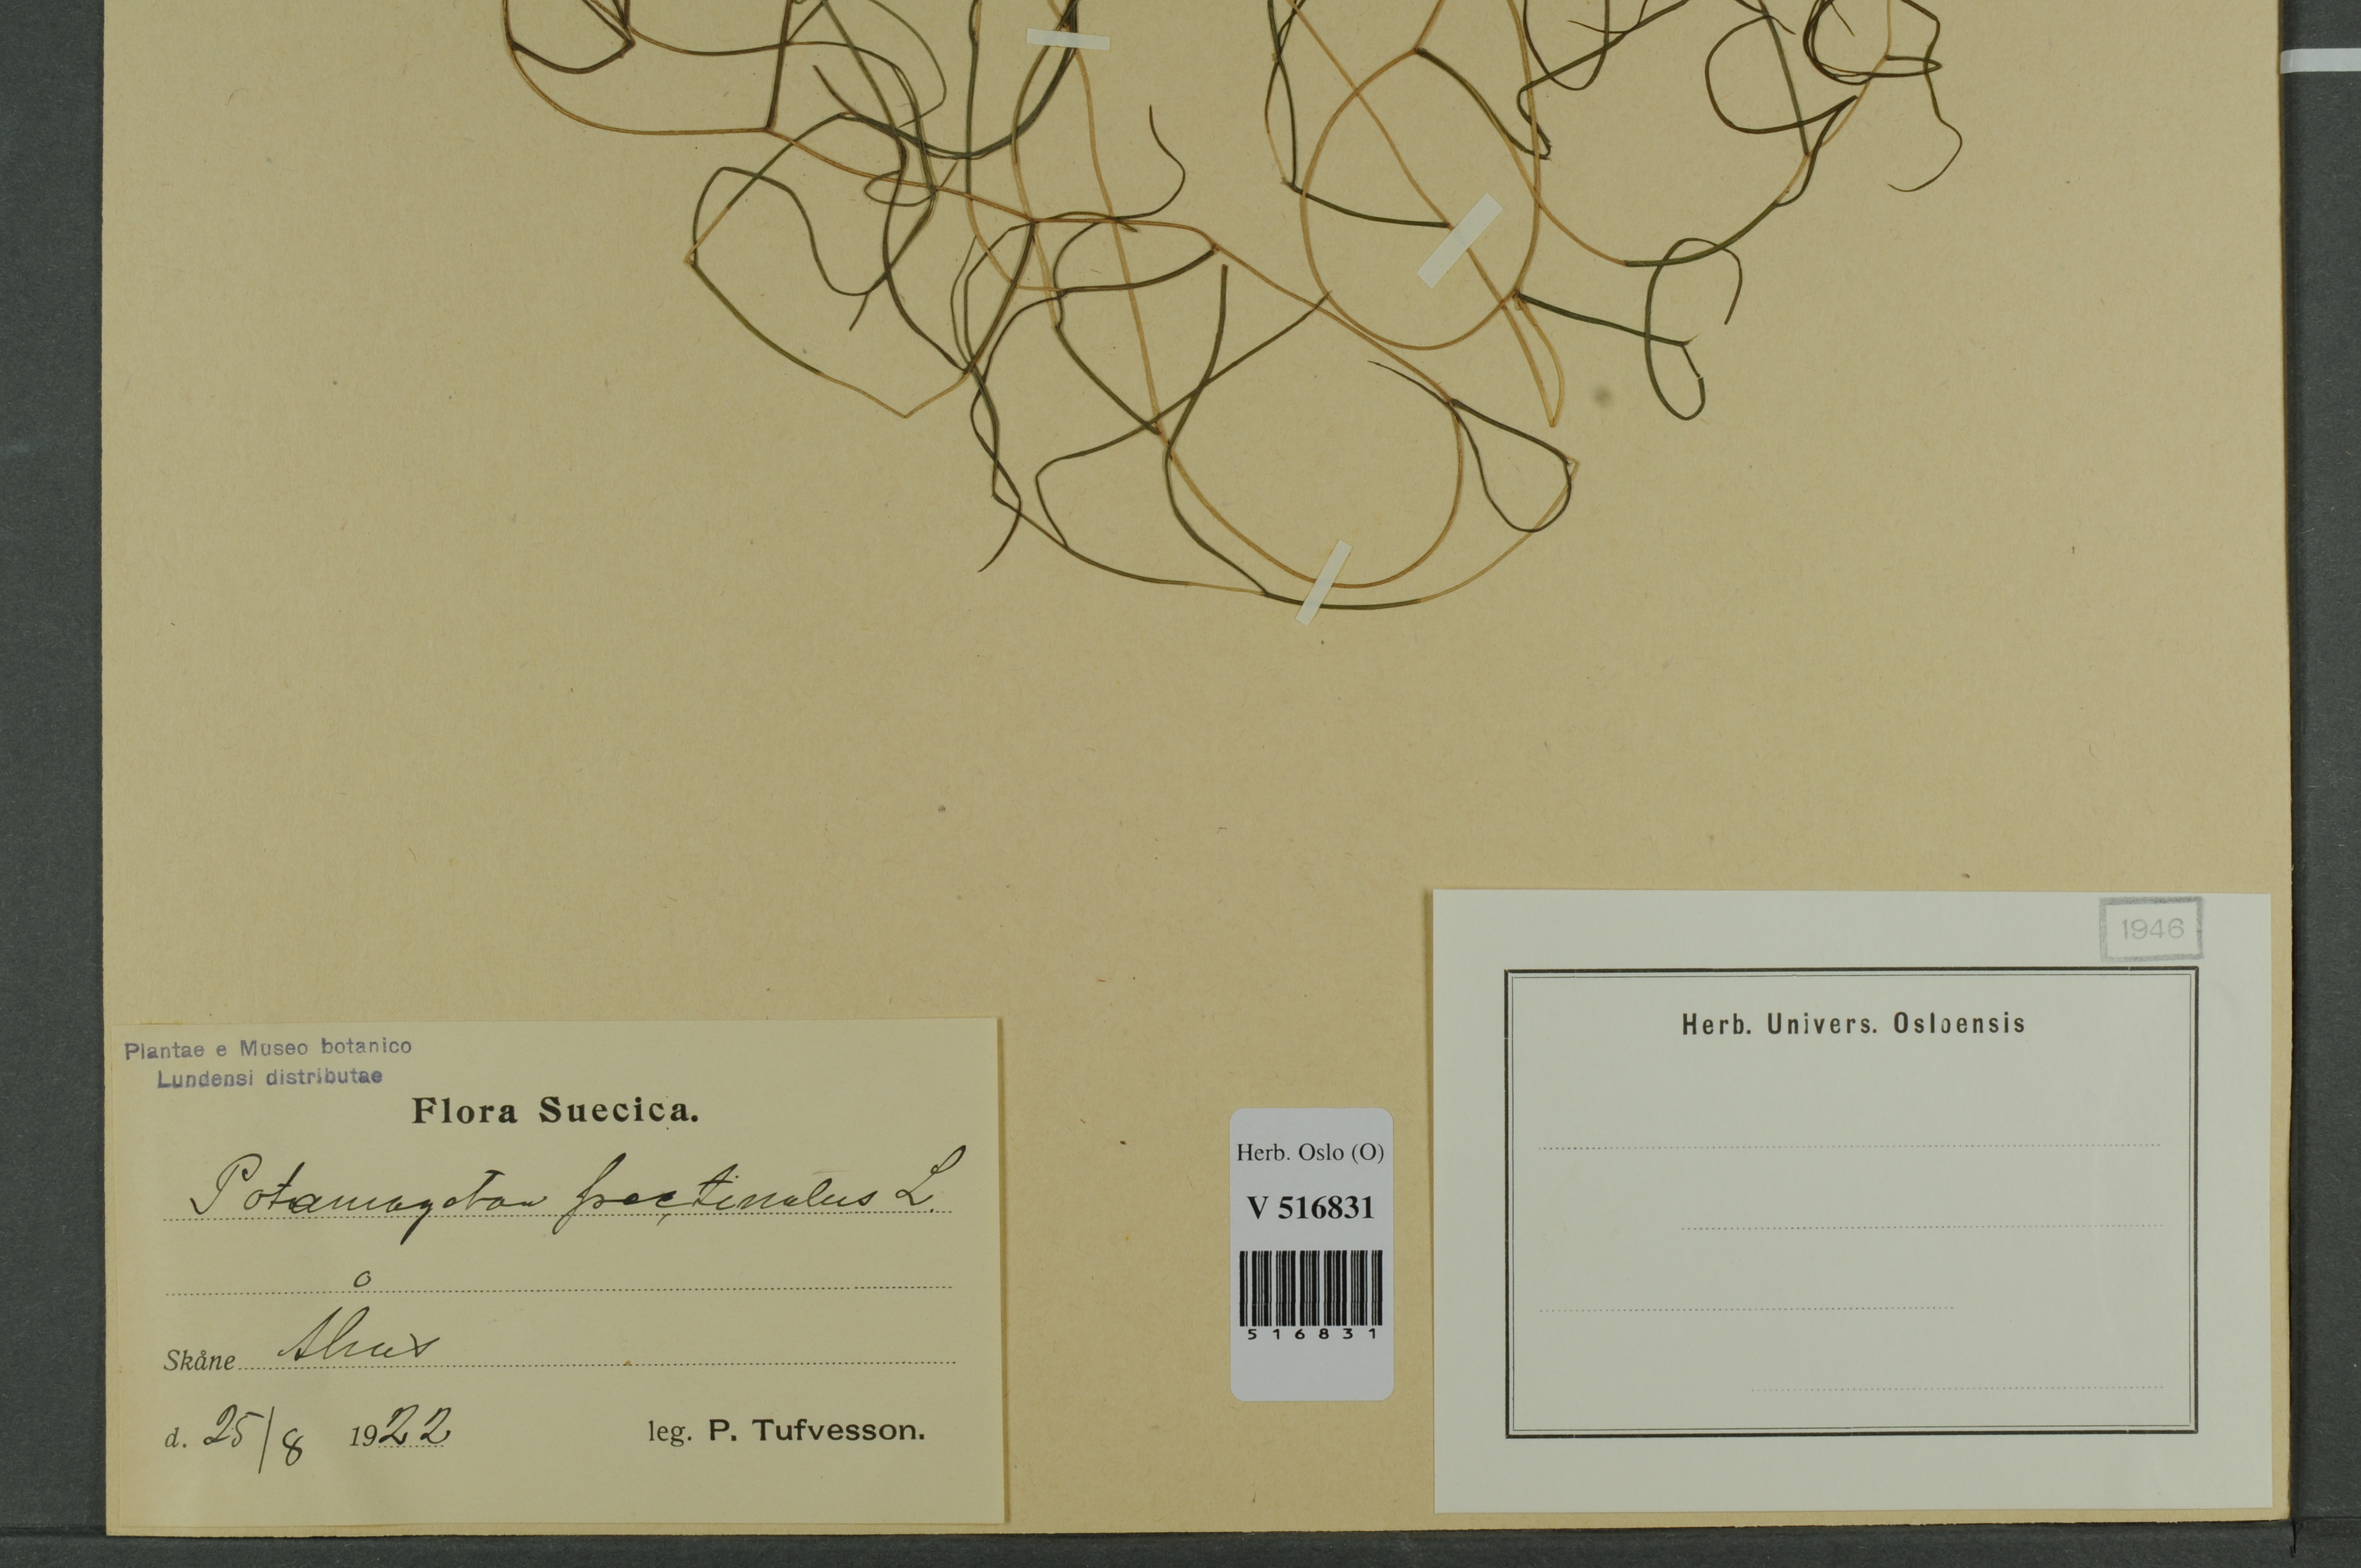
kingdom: Plantae
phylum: Tracheophyta
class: Liliopsida
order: Alismatales
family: Potamogetonaceae
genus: Stuckenia
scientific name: Stuckenia pectinata
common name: Sago pondweed
